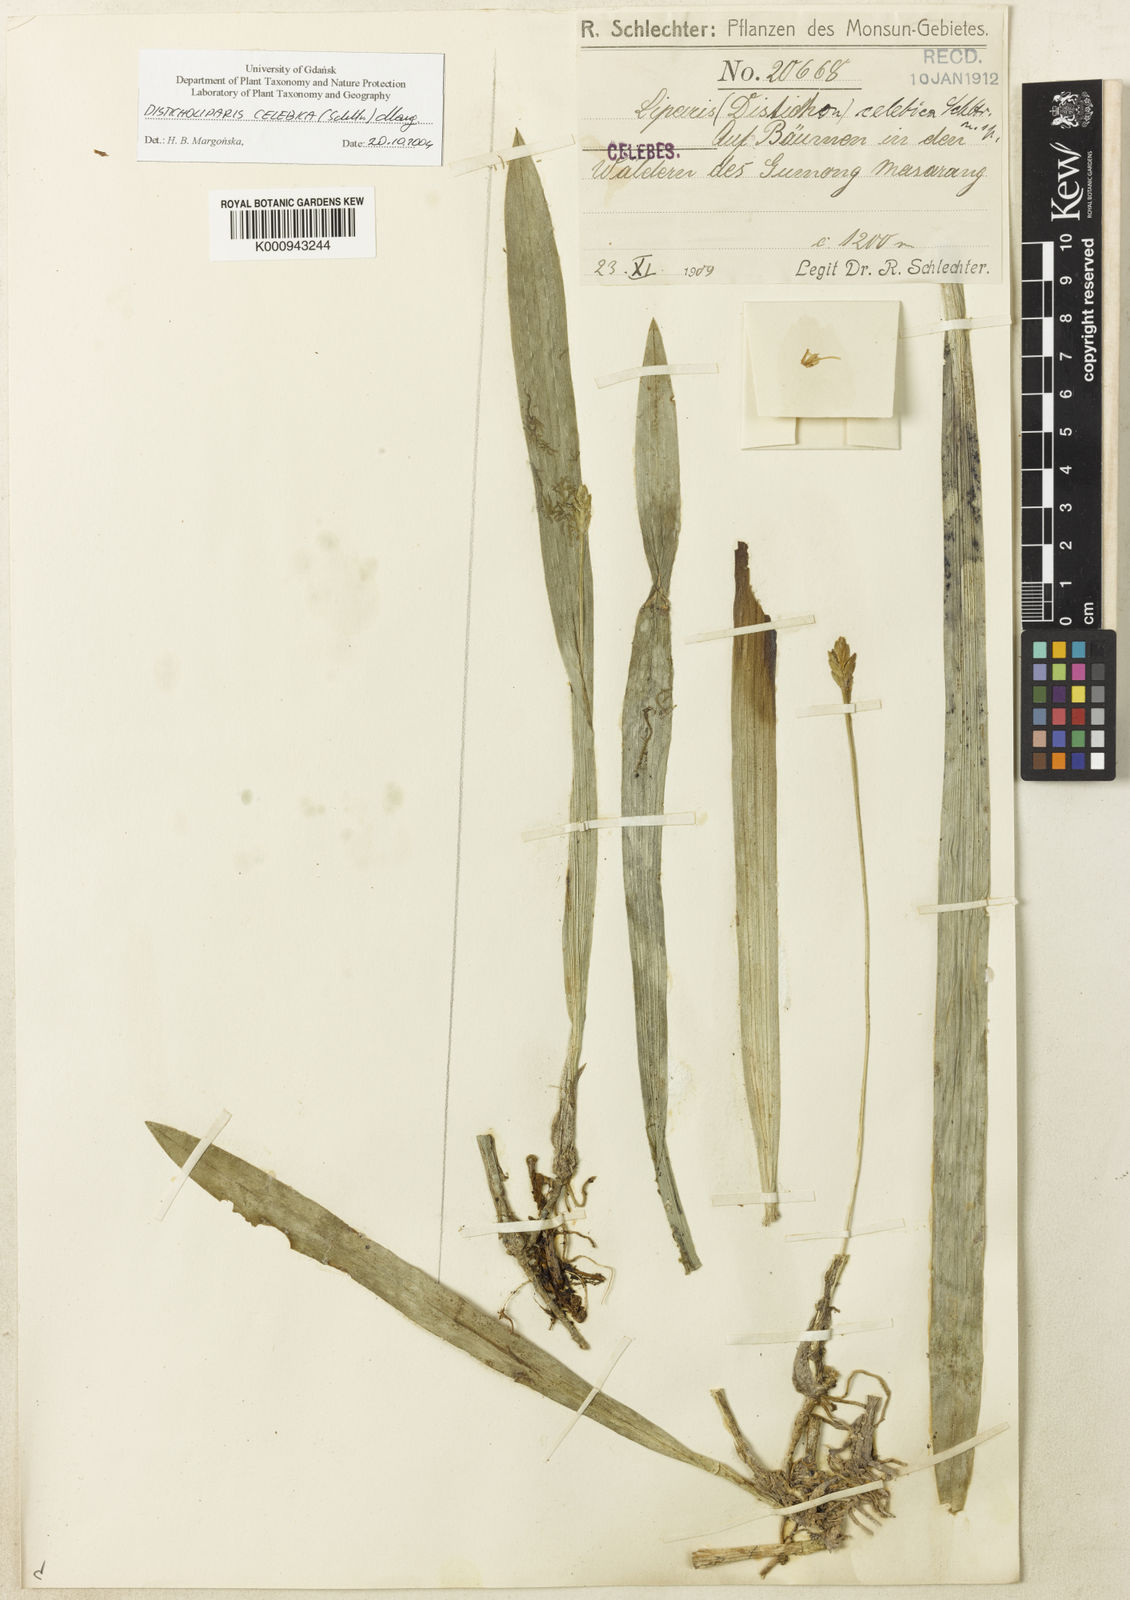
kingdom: Plantae
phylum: Tracheophyta
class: Liliopsida
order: Asparagales
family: Orchidaceae
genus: Stichorkis
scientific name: Stichorkis mucronata
